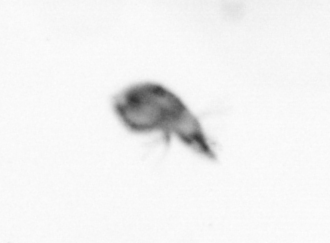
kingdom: Animalia
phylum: Arthropoda
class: Copepoda
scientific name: Copepoda
